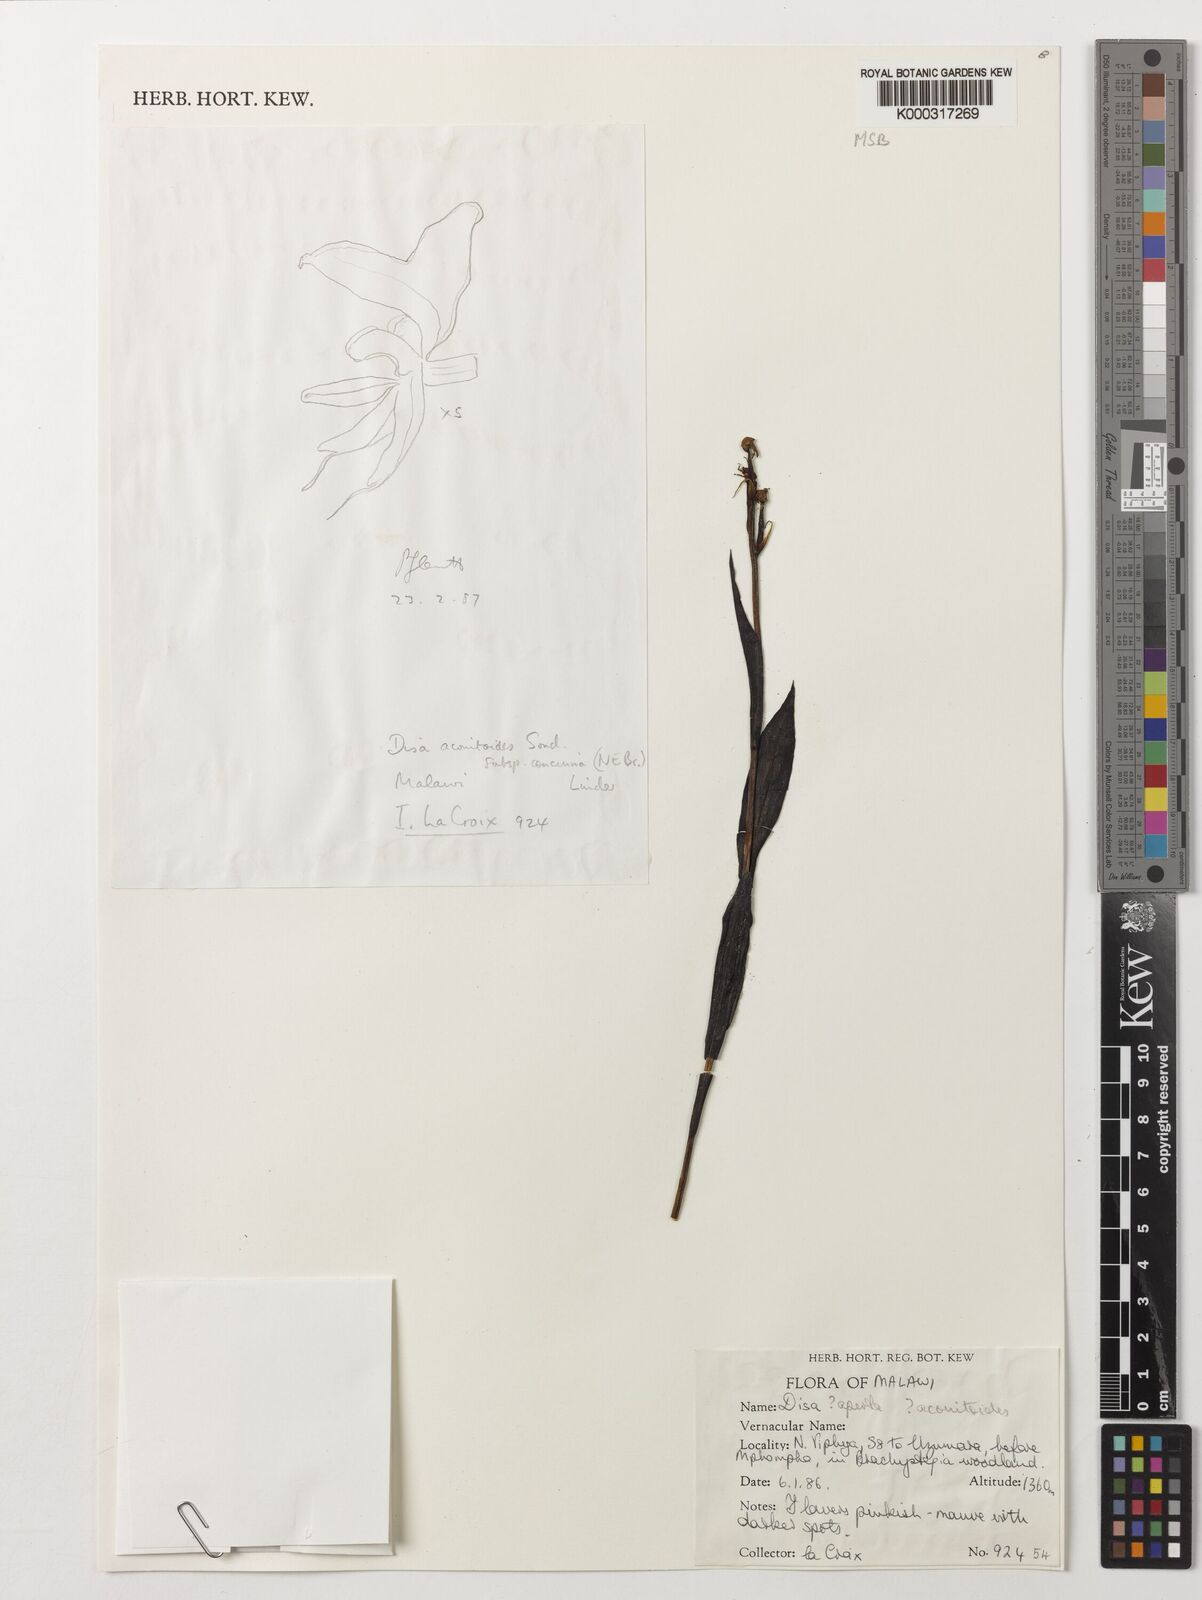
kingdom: Plantae
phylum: Tracheophyta
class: Liliopsida
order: Asparagales
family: Orchidaceae
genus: Disa
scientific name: Disa aperta
